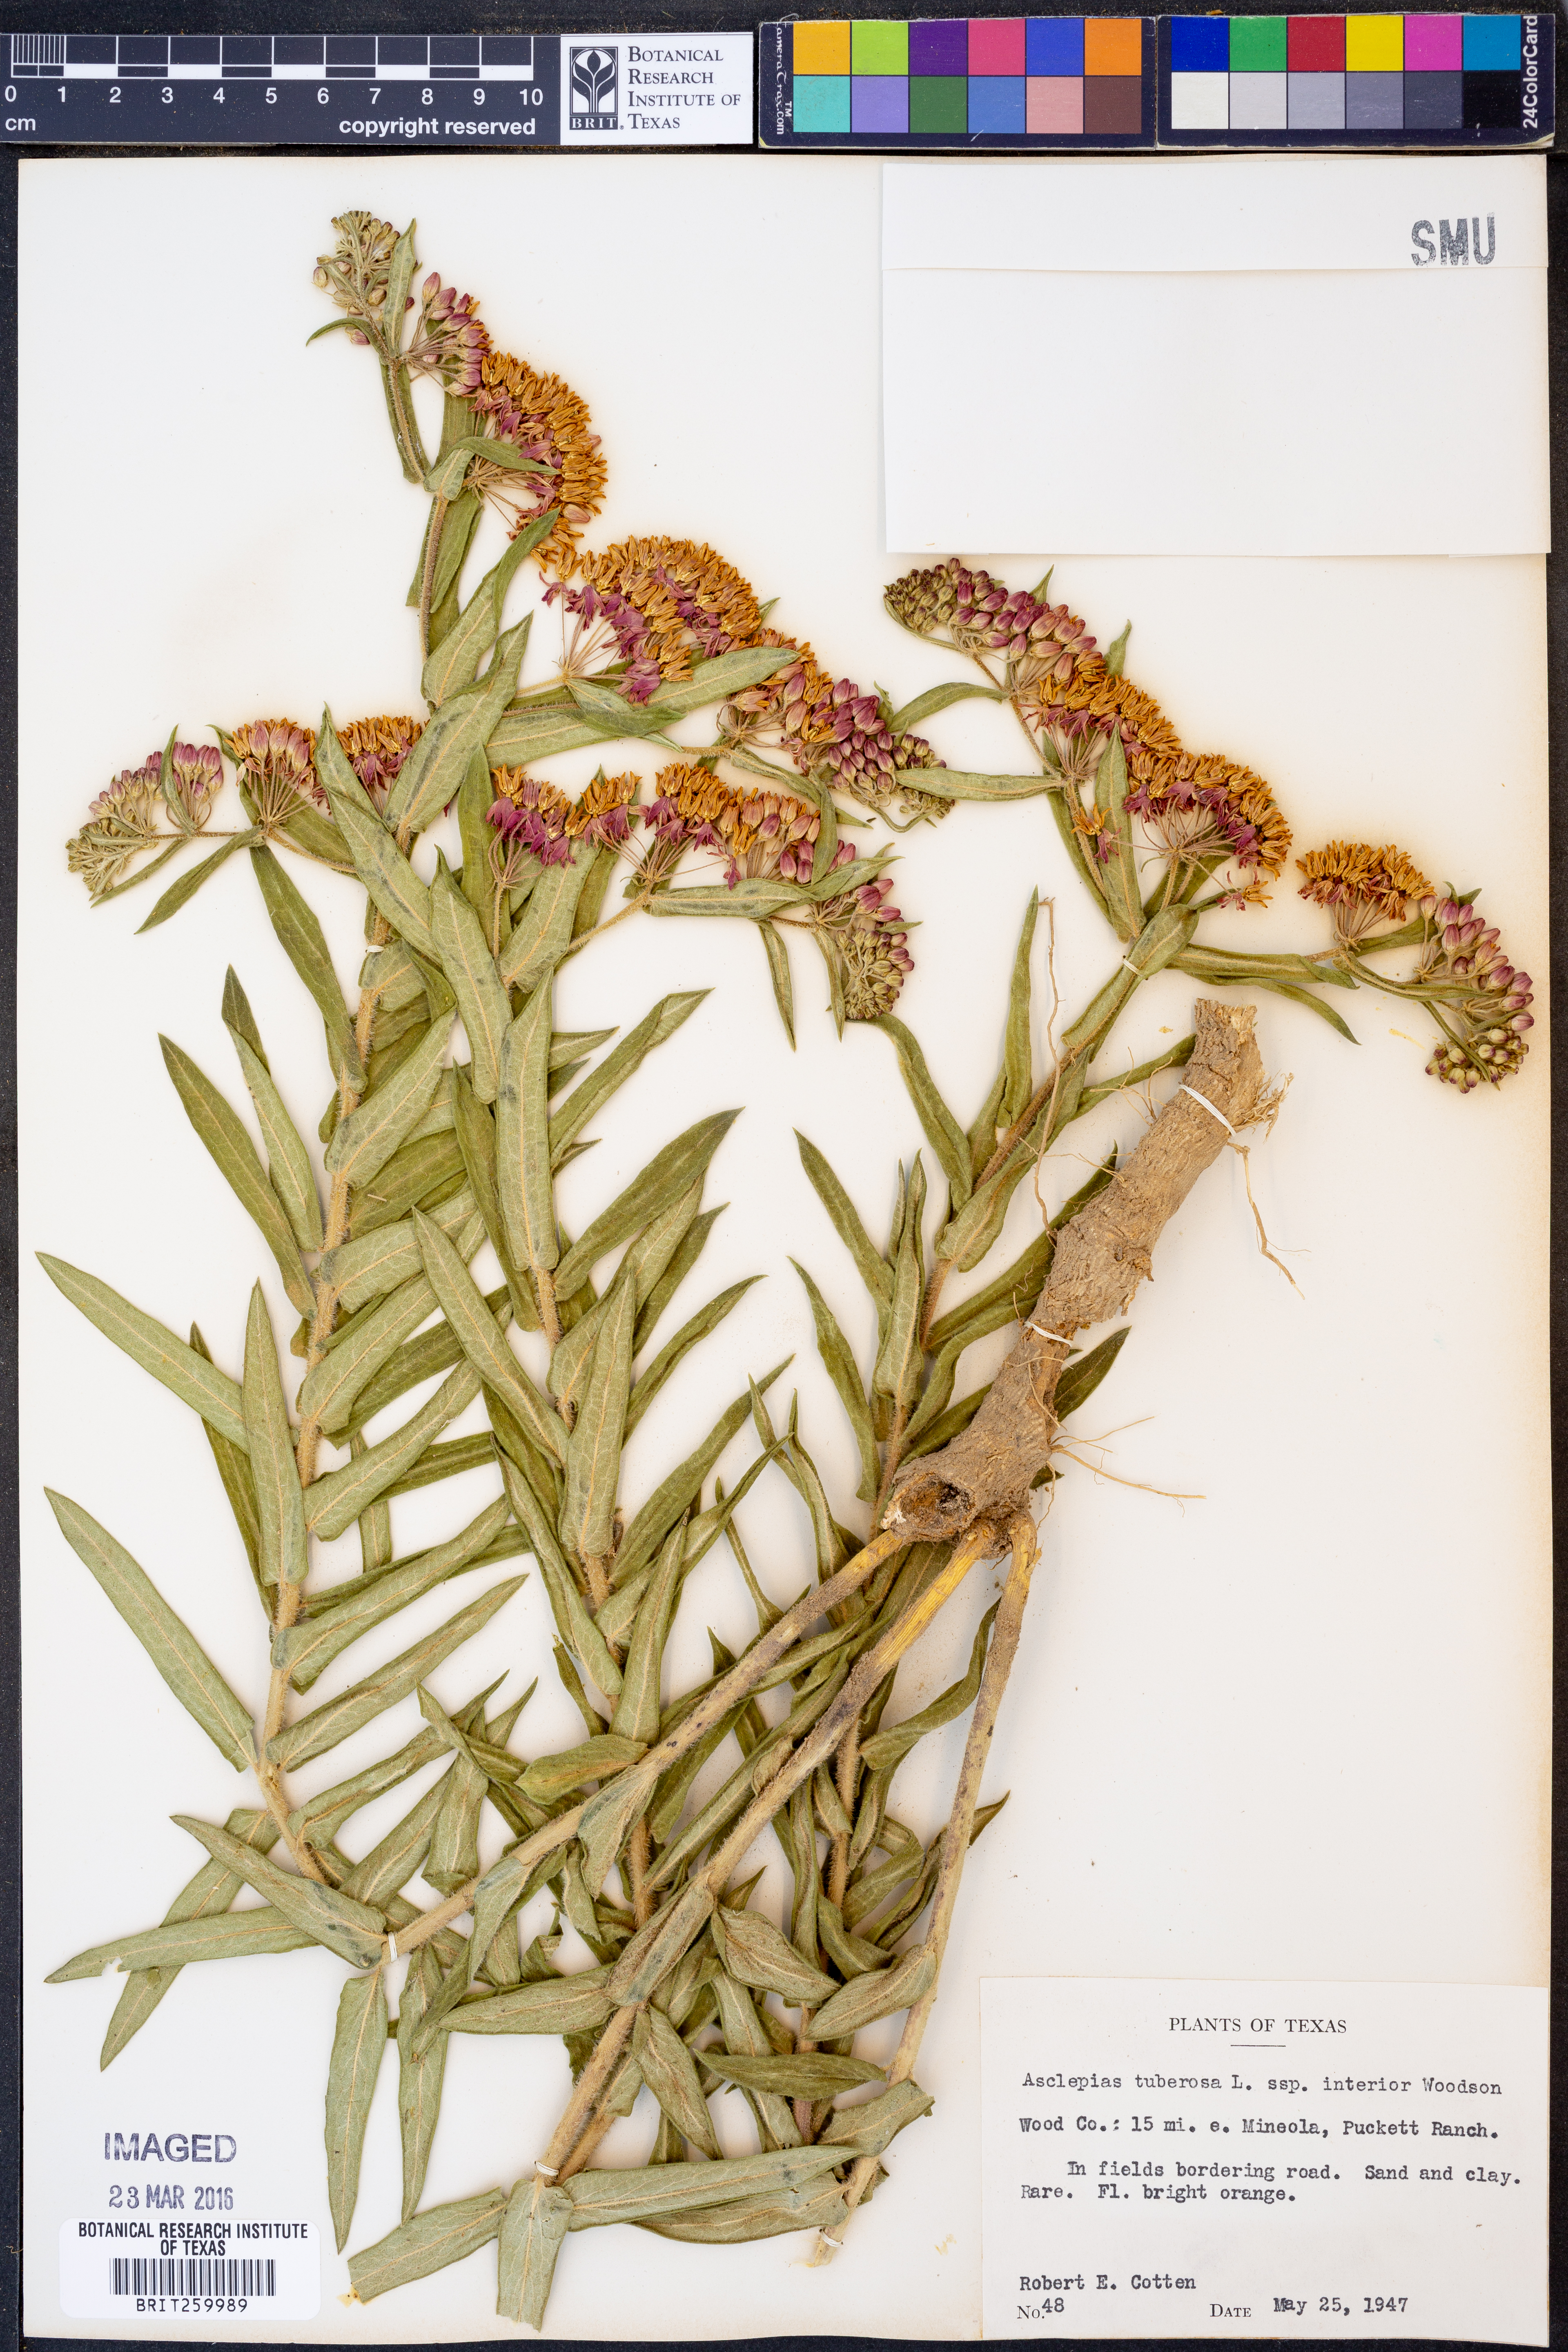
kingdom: Plantae
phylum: Tracheophyta
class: Magnoliopsida
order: Gentianales
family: Apocynaceae
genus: Asclepias
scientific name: Asclepias tuberosa
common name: Butterfly milkweed
